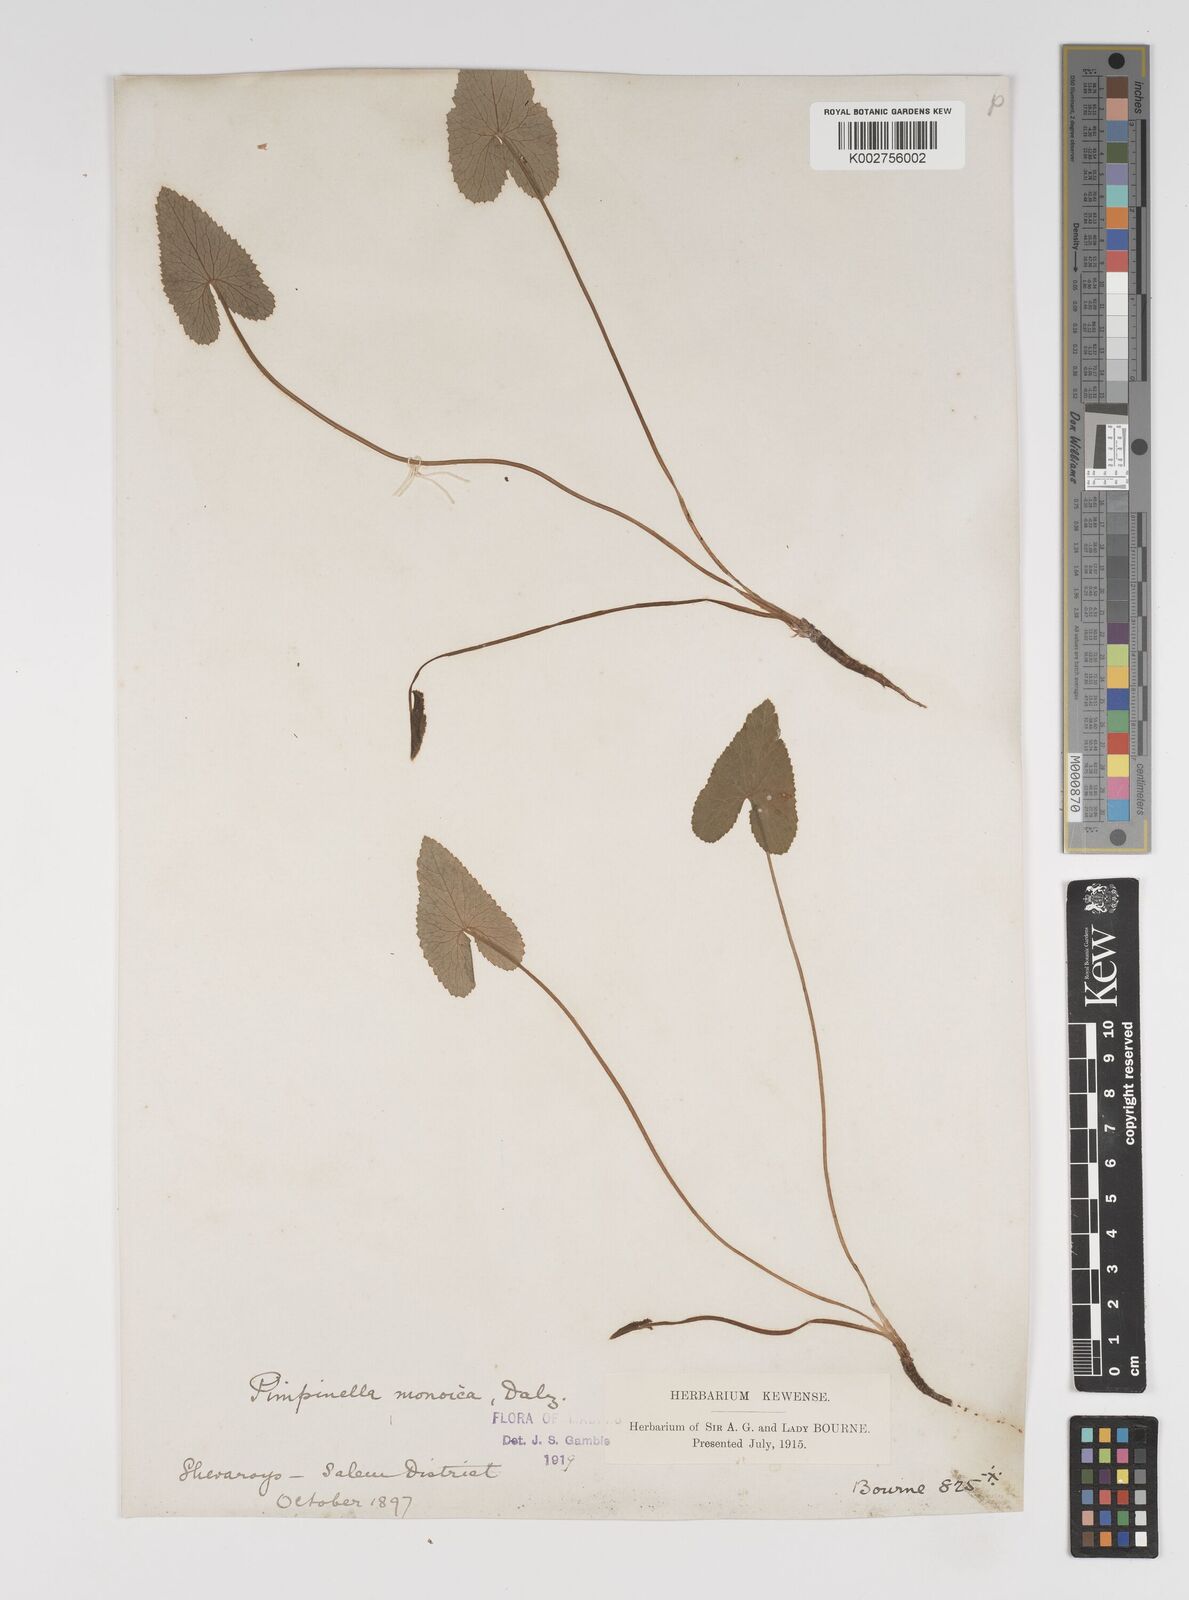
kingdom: Plantae
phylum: Tracheophyta
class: Magnoliopsida
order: Apiales
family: Apiaceae
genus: Pimpinella
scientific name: Pimpinella wallichiana
